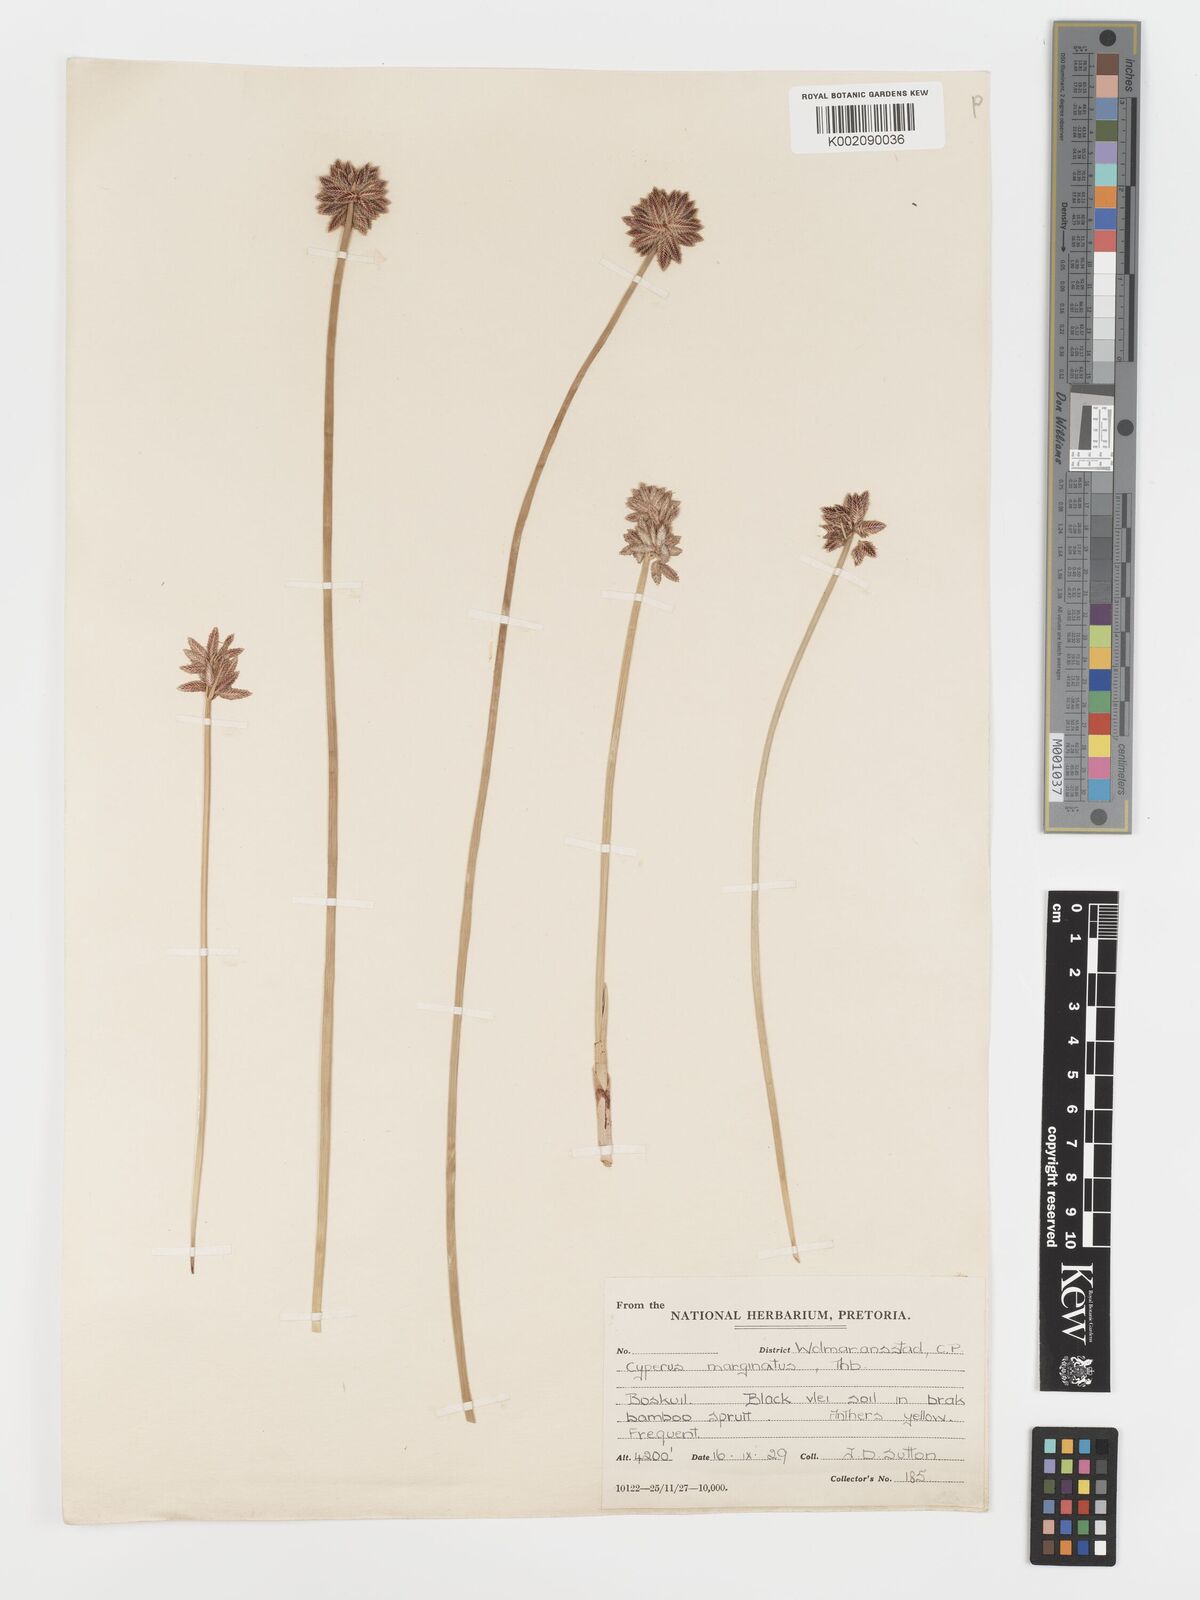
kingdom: Plantae
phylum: Tracheophyta
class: Liliopsida
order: Poales
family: Cyperaceae
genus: Cyperus
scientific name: Cyperus marginatus
